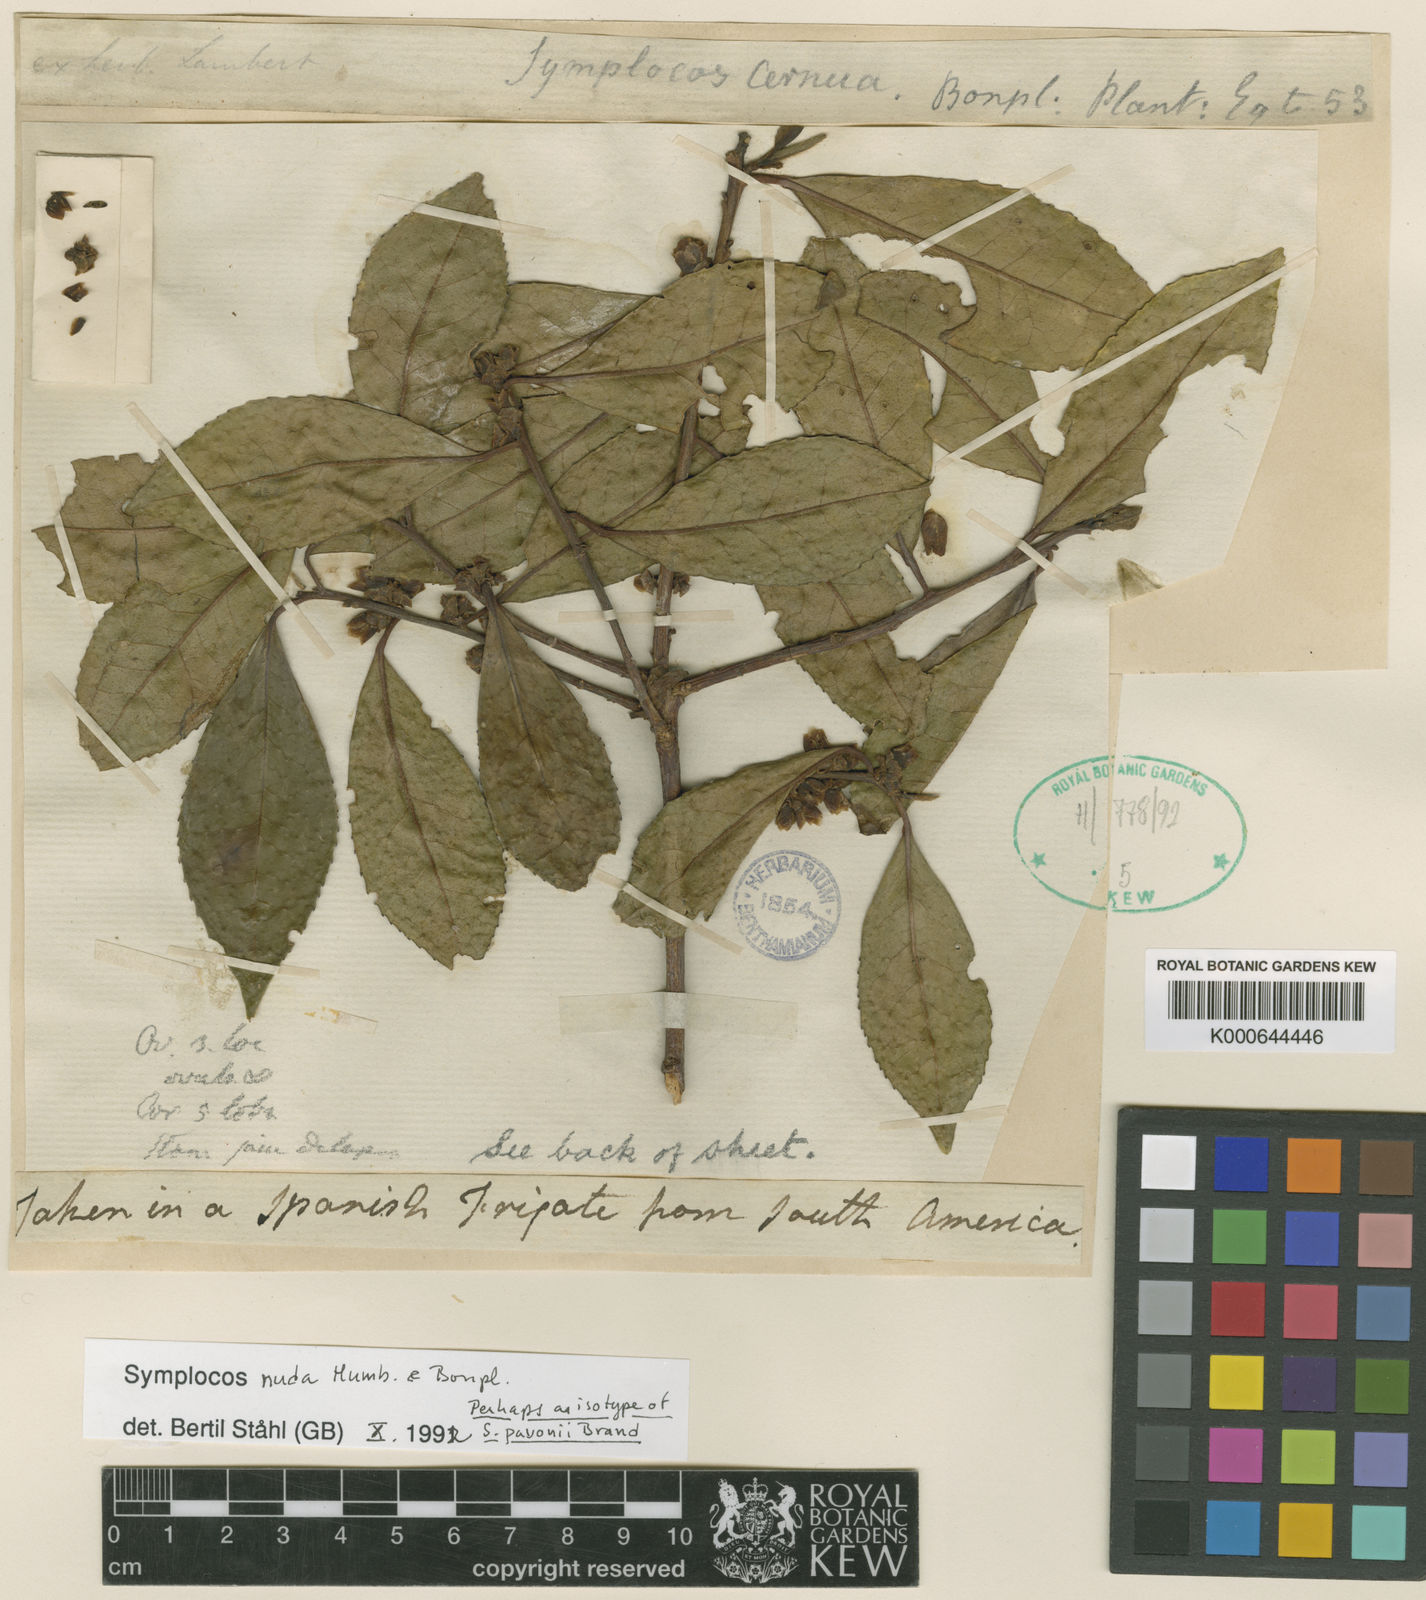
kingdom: Plantae
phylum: Tracheophyta
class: Magnoliopsida
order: Ericales
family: Symplocaceae
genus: Symplocos
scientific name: Symplocos nuda
